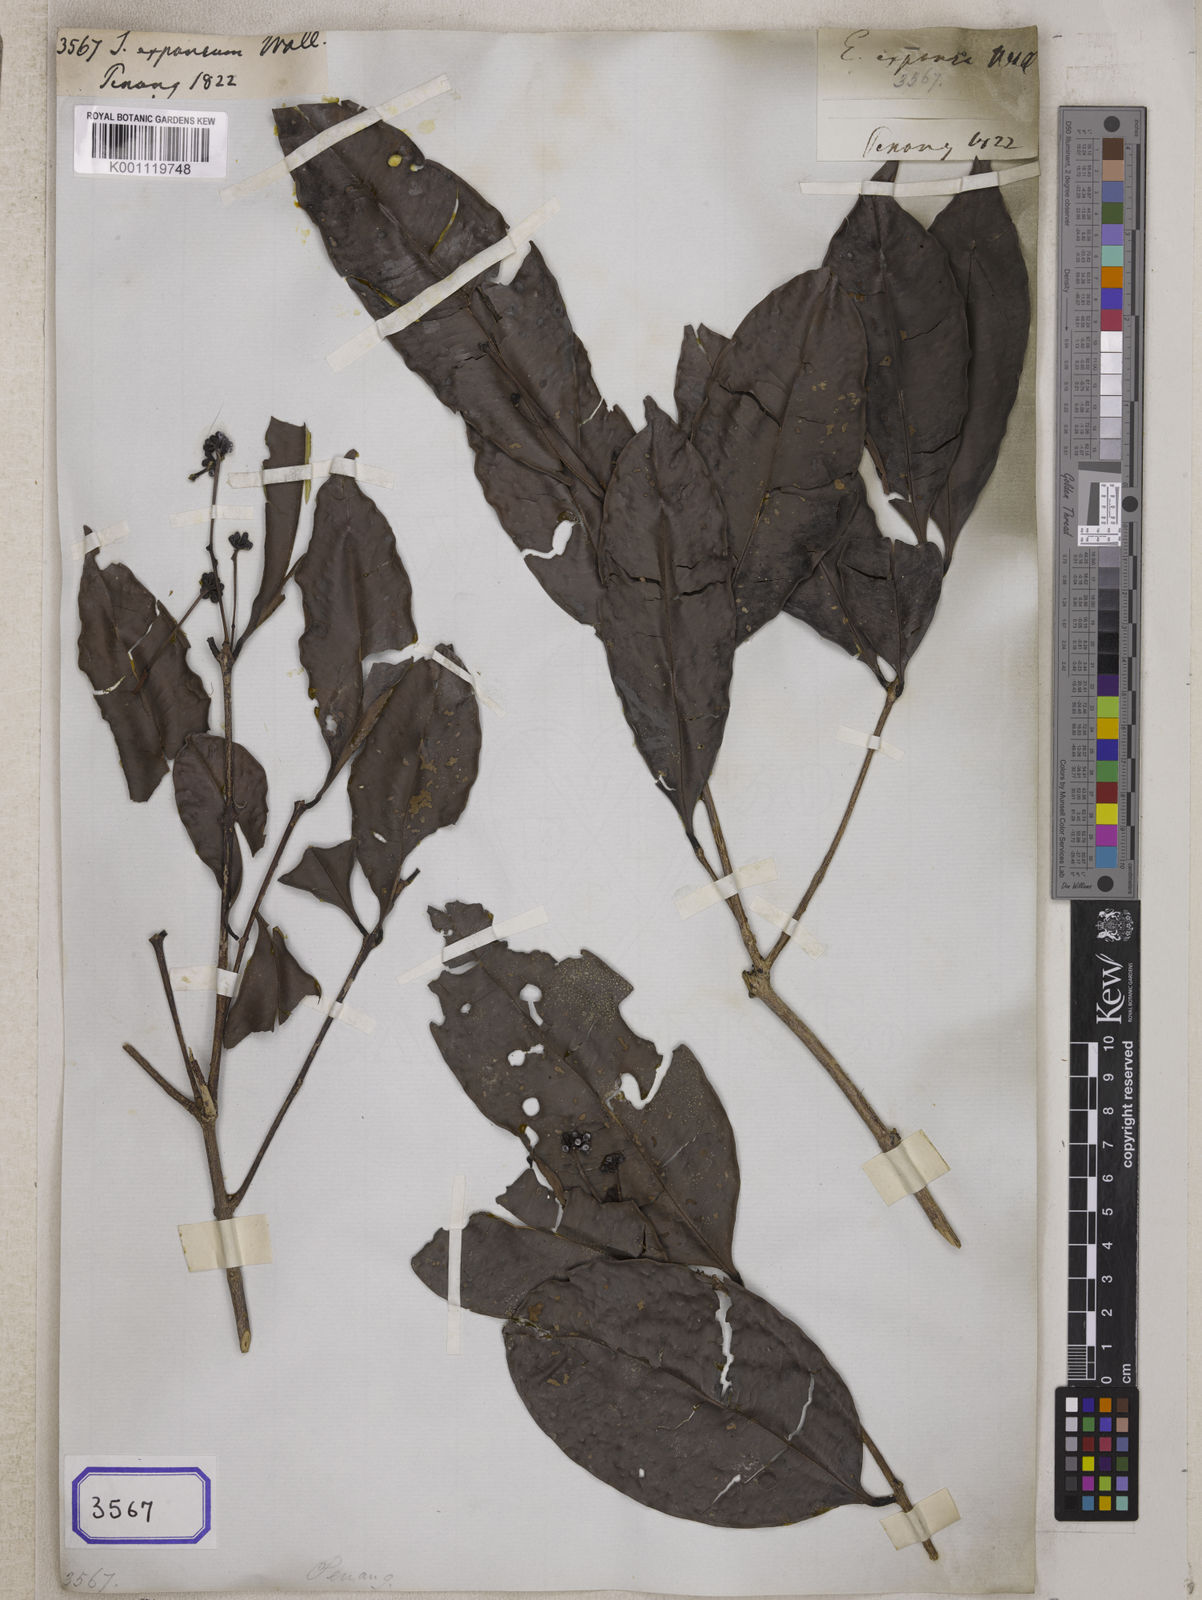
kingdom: Plantae
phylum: Tracheophyta
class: Magnoliopsida
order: Myrtales
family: Myrtaceae
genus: Syzygium
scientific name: Syzygium
